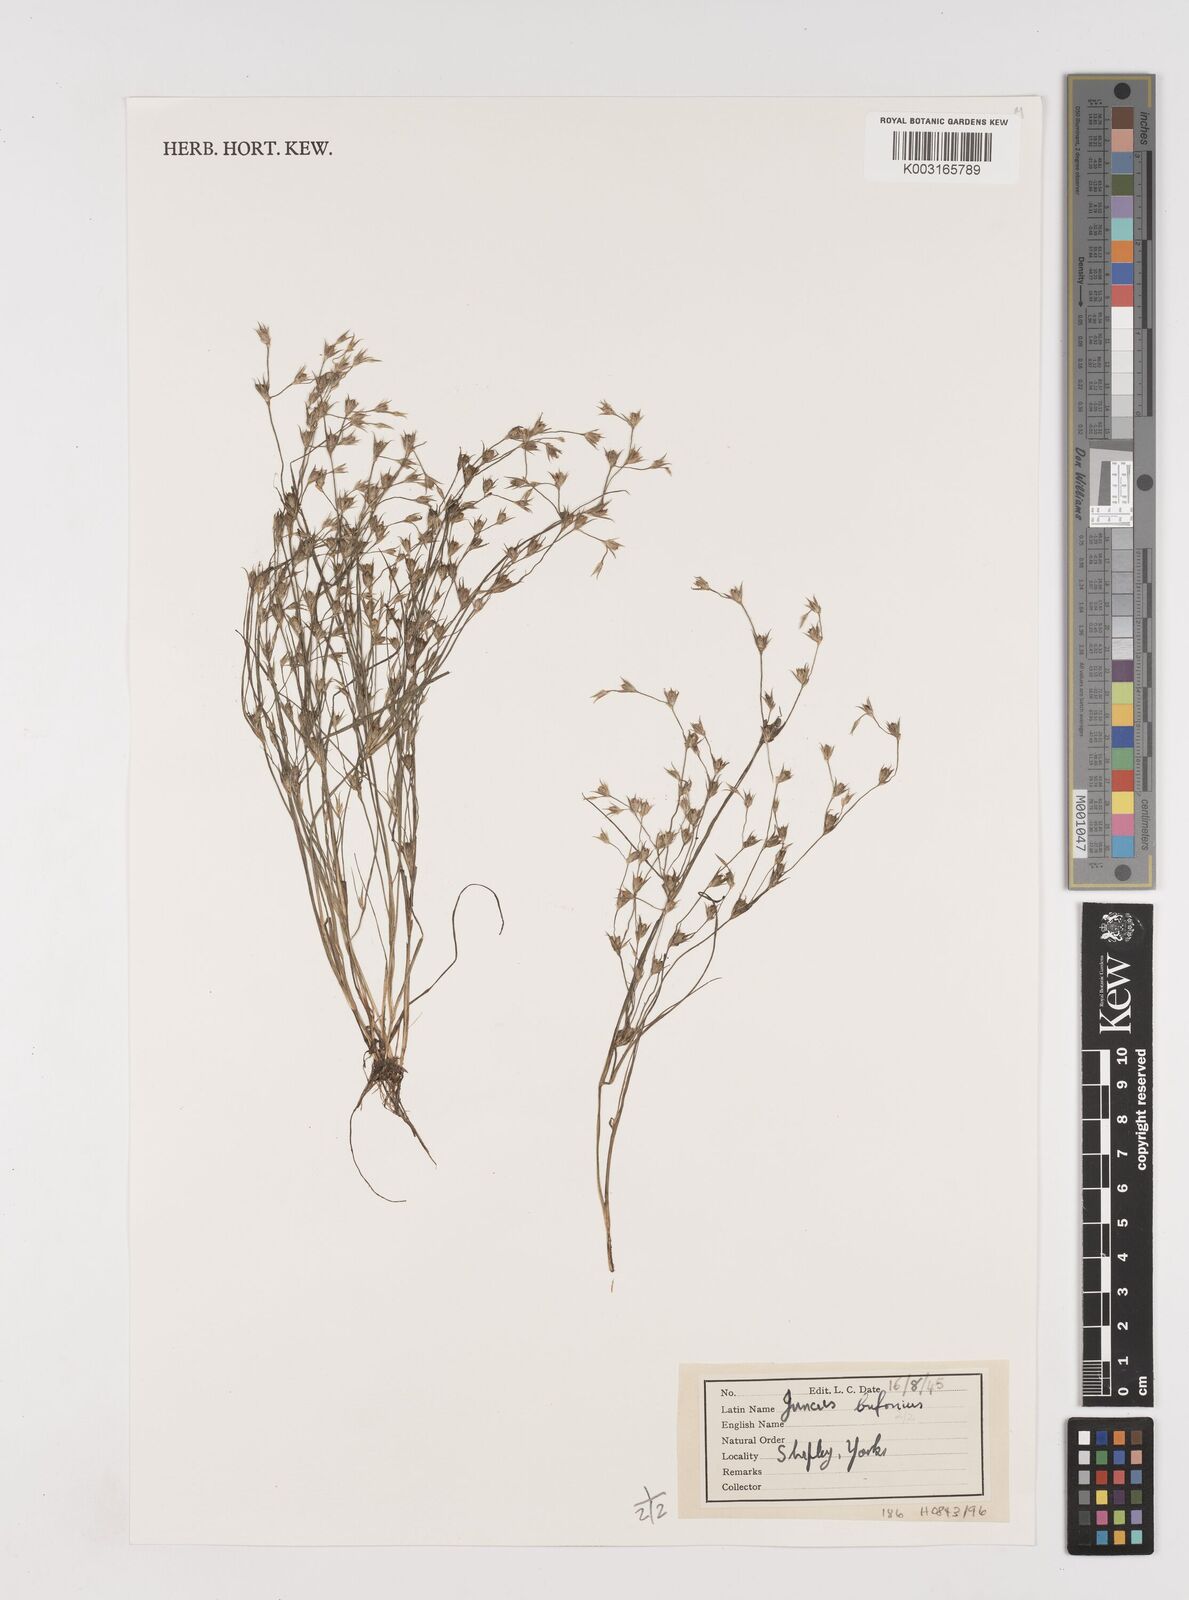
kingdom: Plantae
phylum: Tracheophyta
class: Liliopsida
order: Poales
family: Juncaceae
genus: Juncus
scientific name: Juncus bufonius
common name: Toad rush
